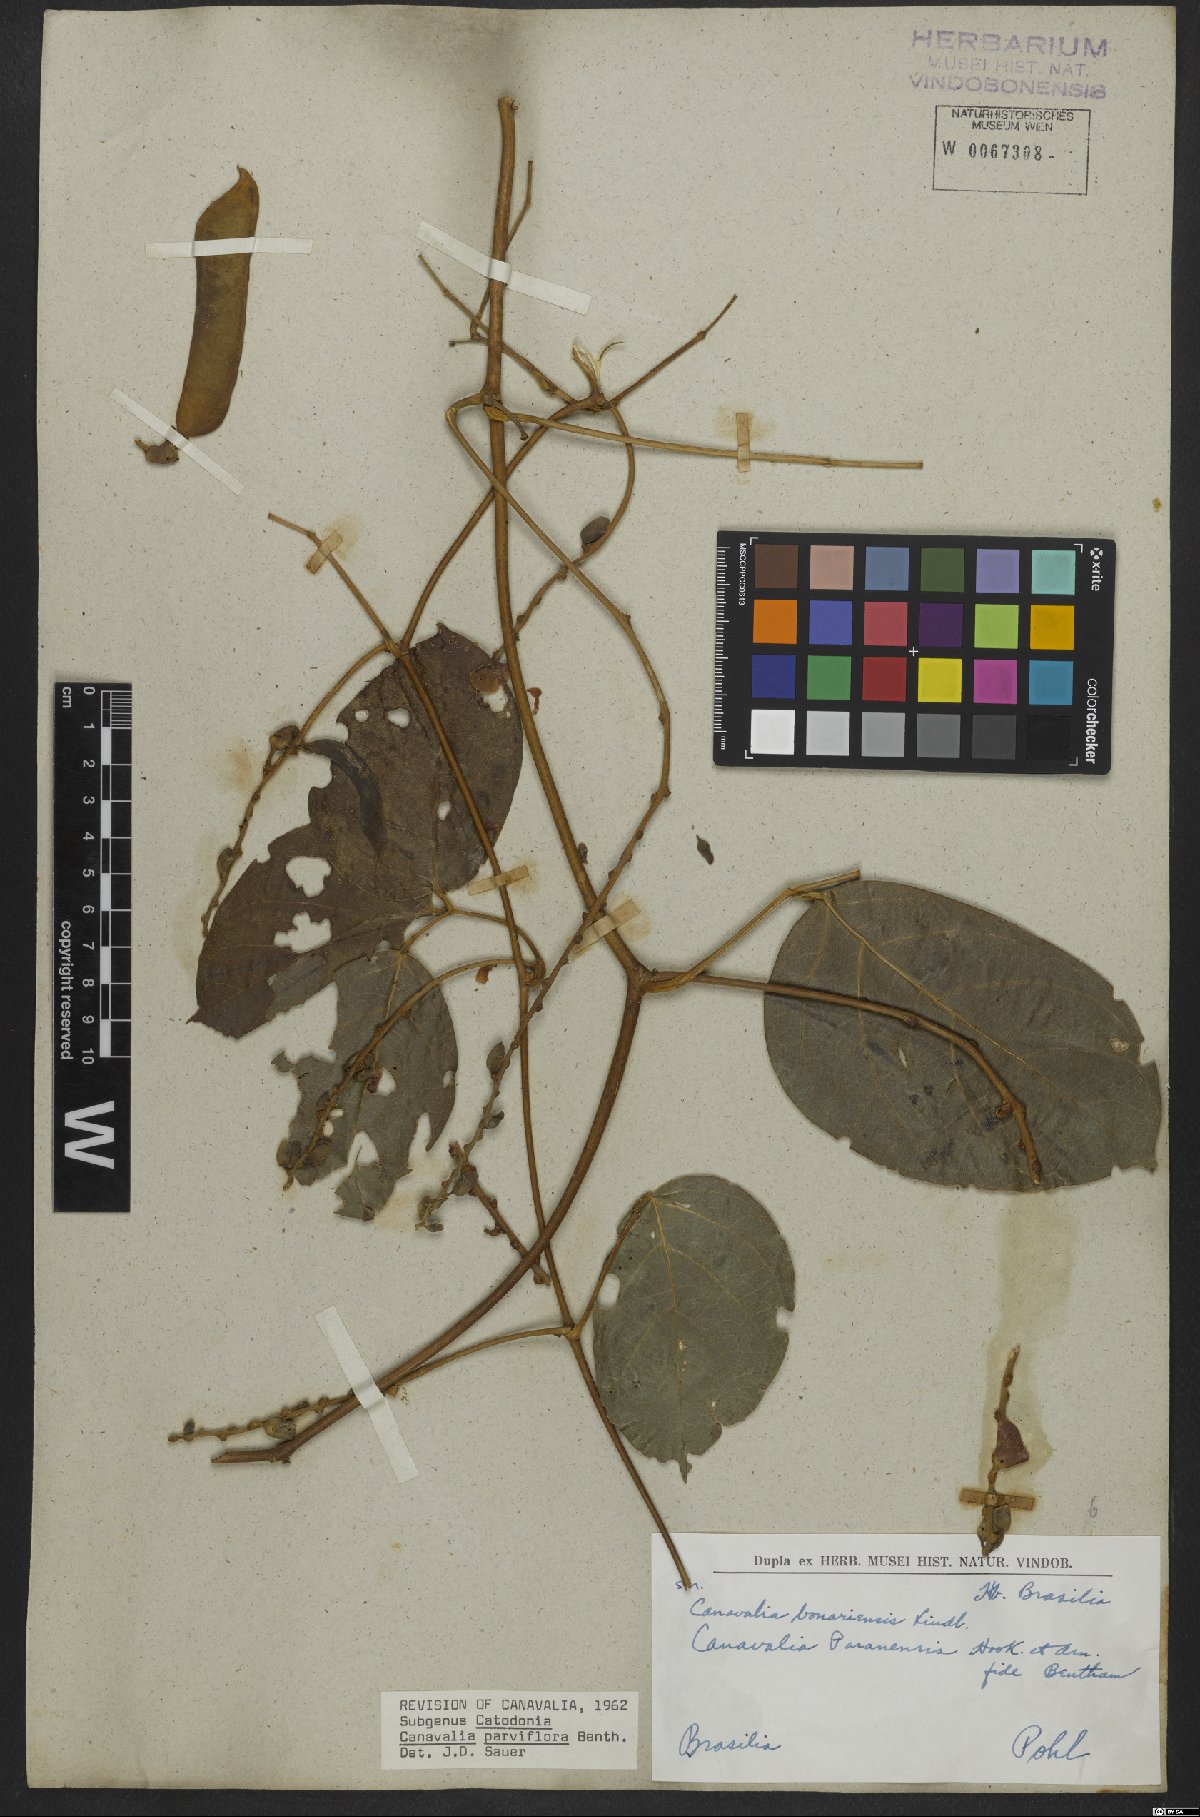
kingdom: Plantae
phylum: Tracheophyta
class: Magnoliopsida
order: Fabales
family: Fabaceae
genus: Canavalia
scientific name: Canavalia parviflora
